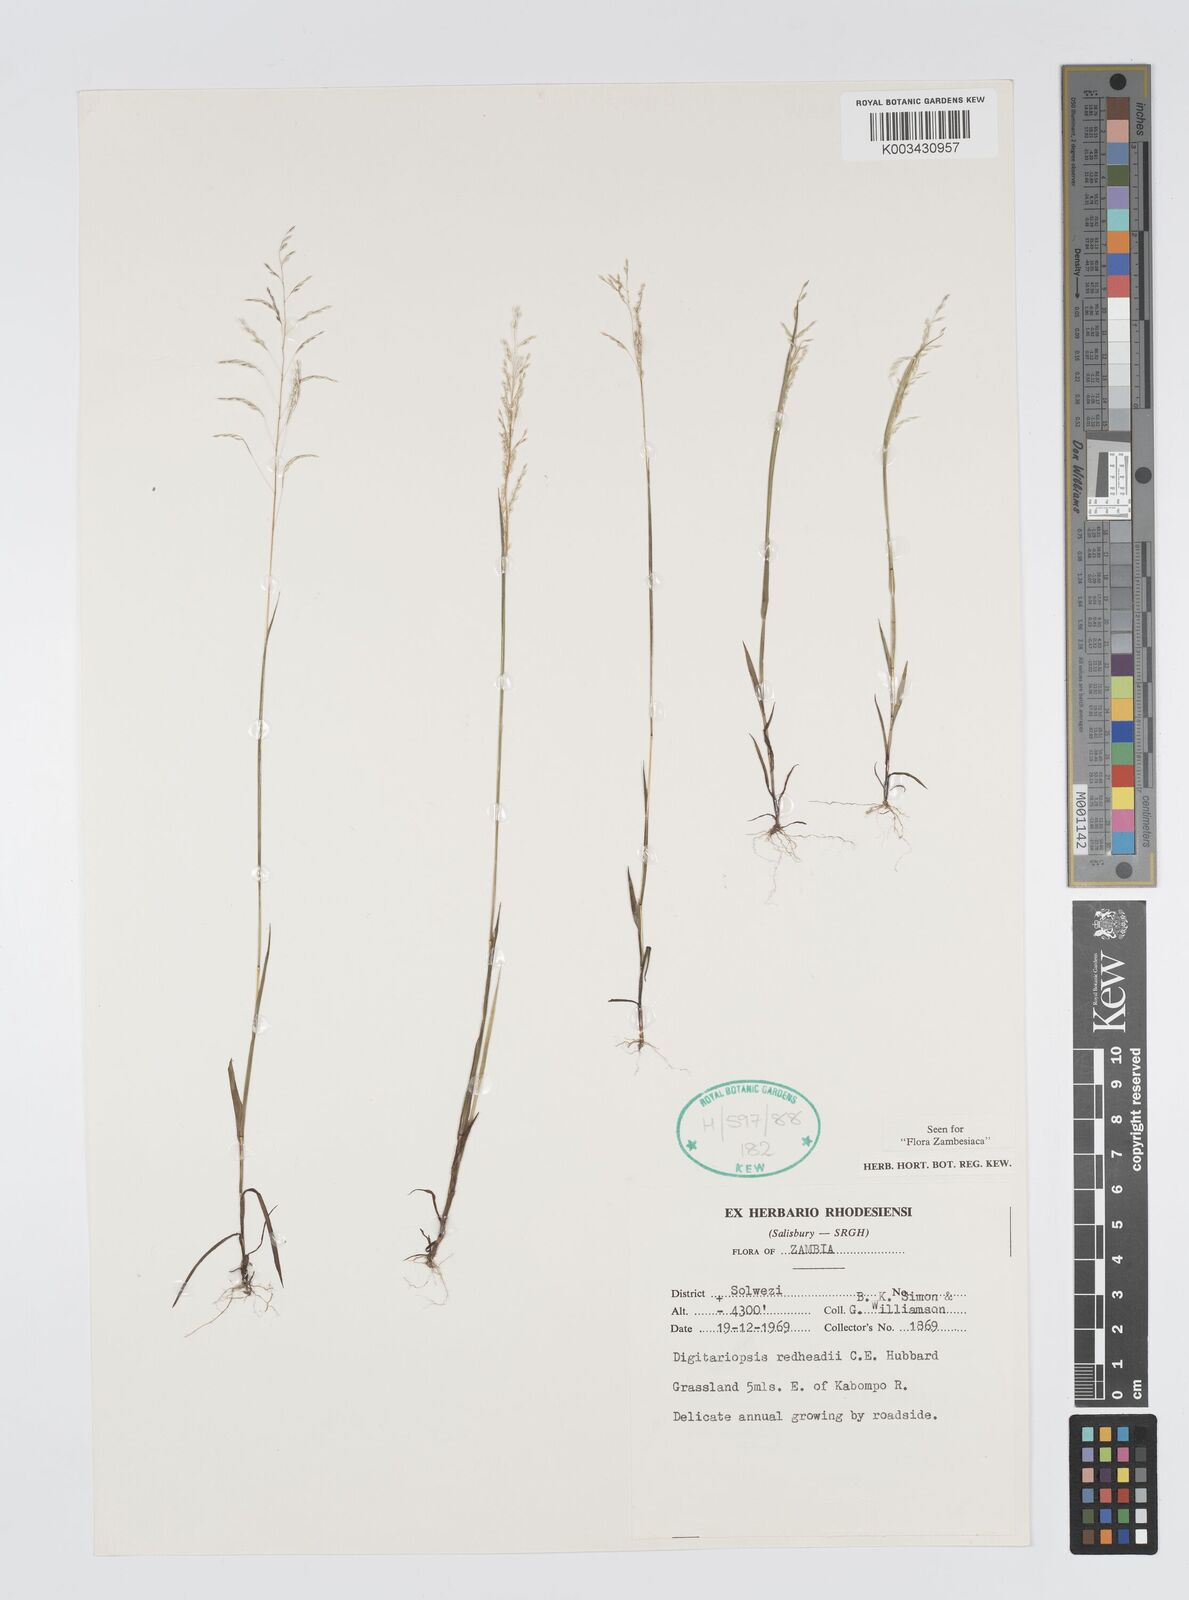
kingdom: Plantae
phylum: Tracheophyta
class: Liliopsida
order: Poales
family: Poaceae
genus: Digitaria
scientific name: Digitaria redheadii
